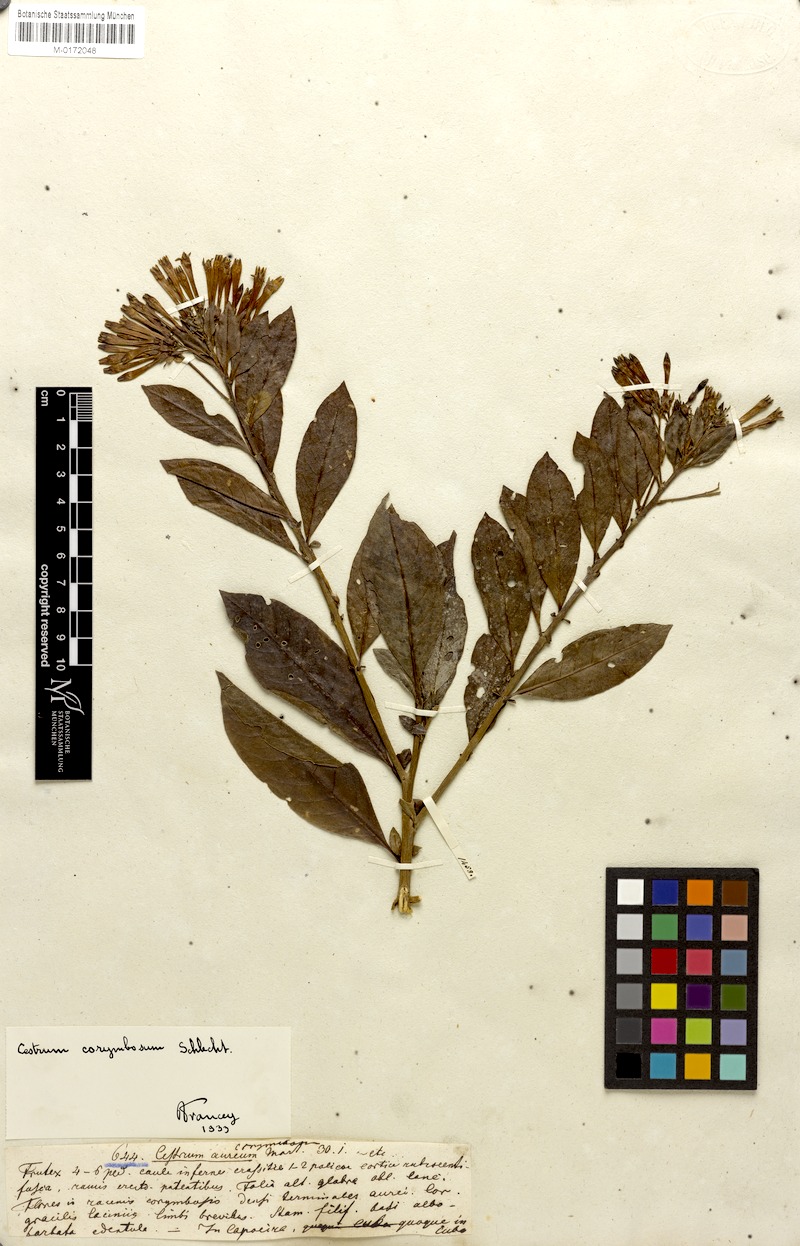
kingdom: Plantae
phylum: Tracheophyta
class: Magnoliopsida
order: Solanales
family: Solanaceae
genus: Cestrum
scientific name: Cestrum euanthes
